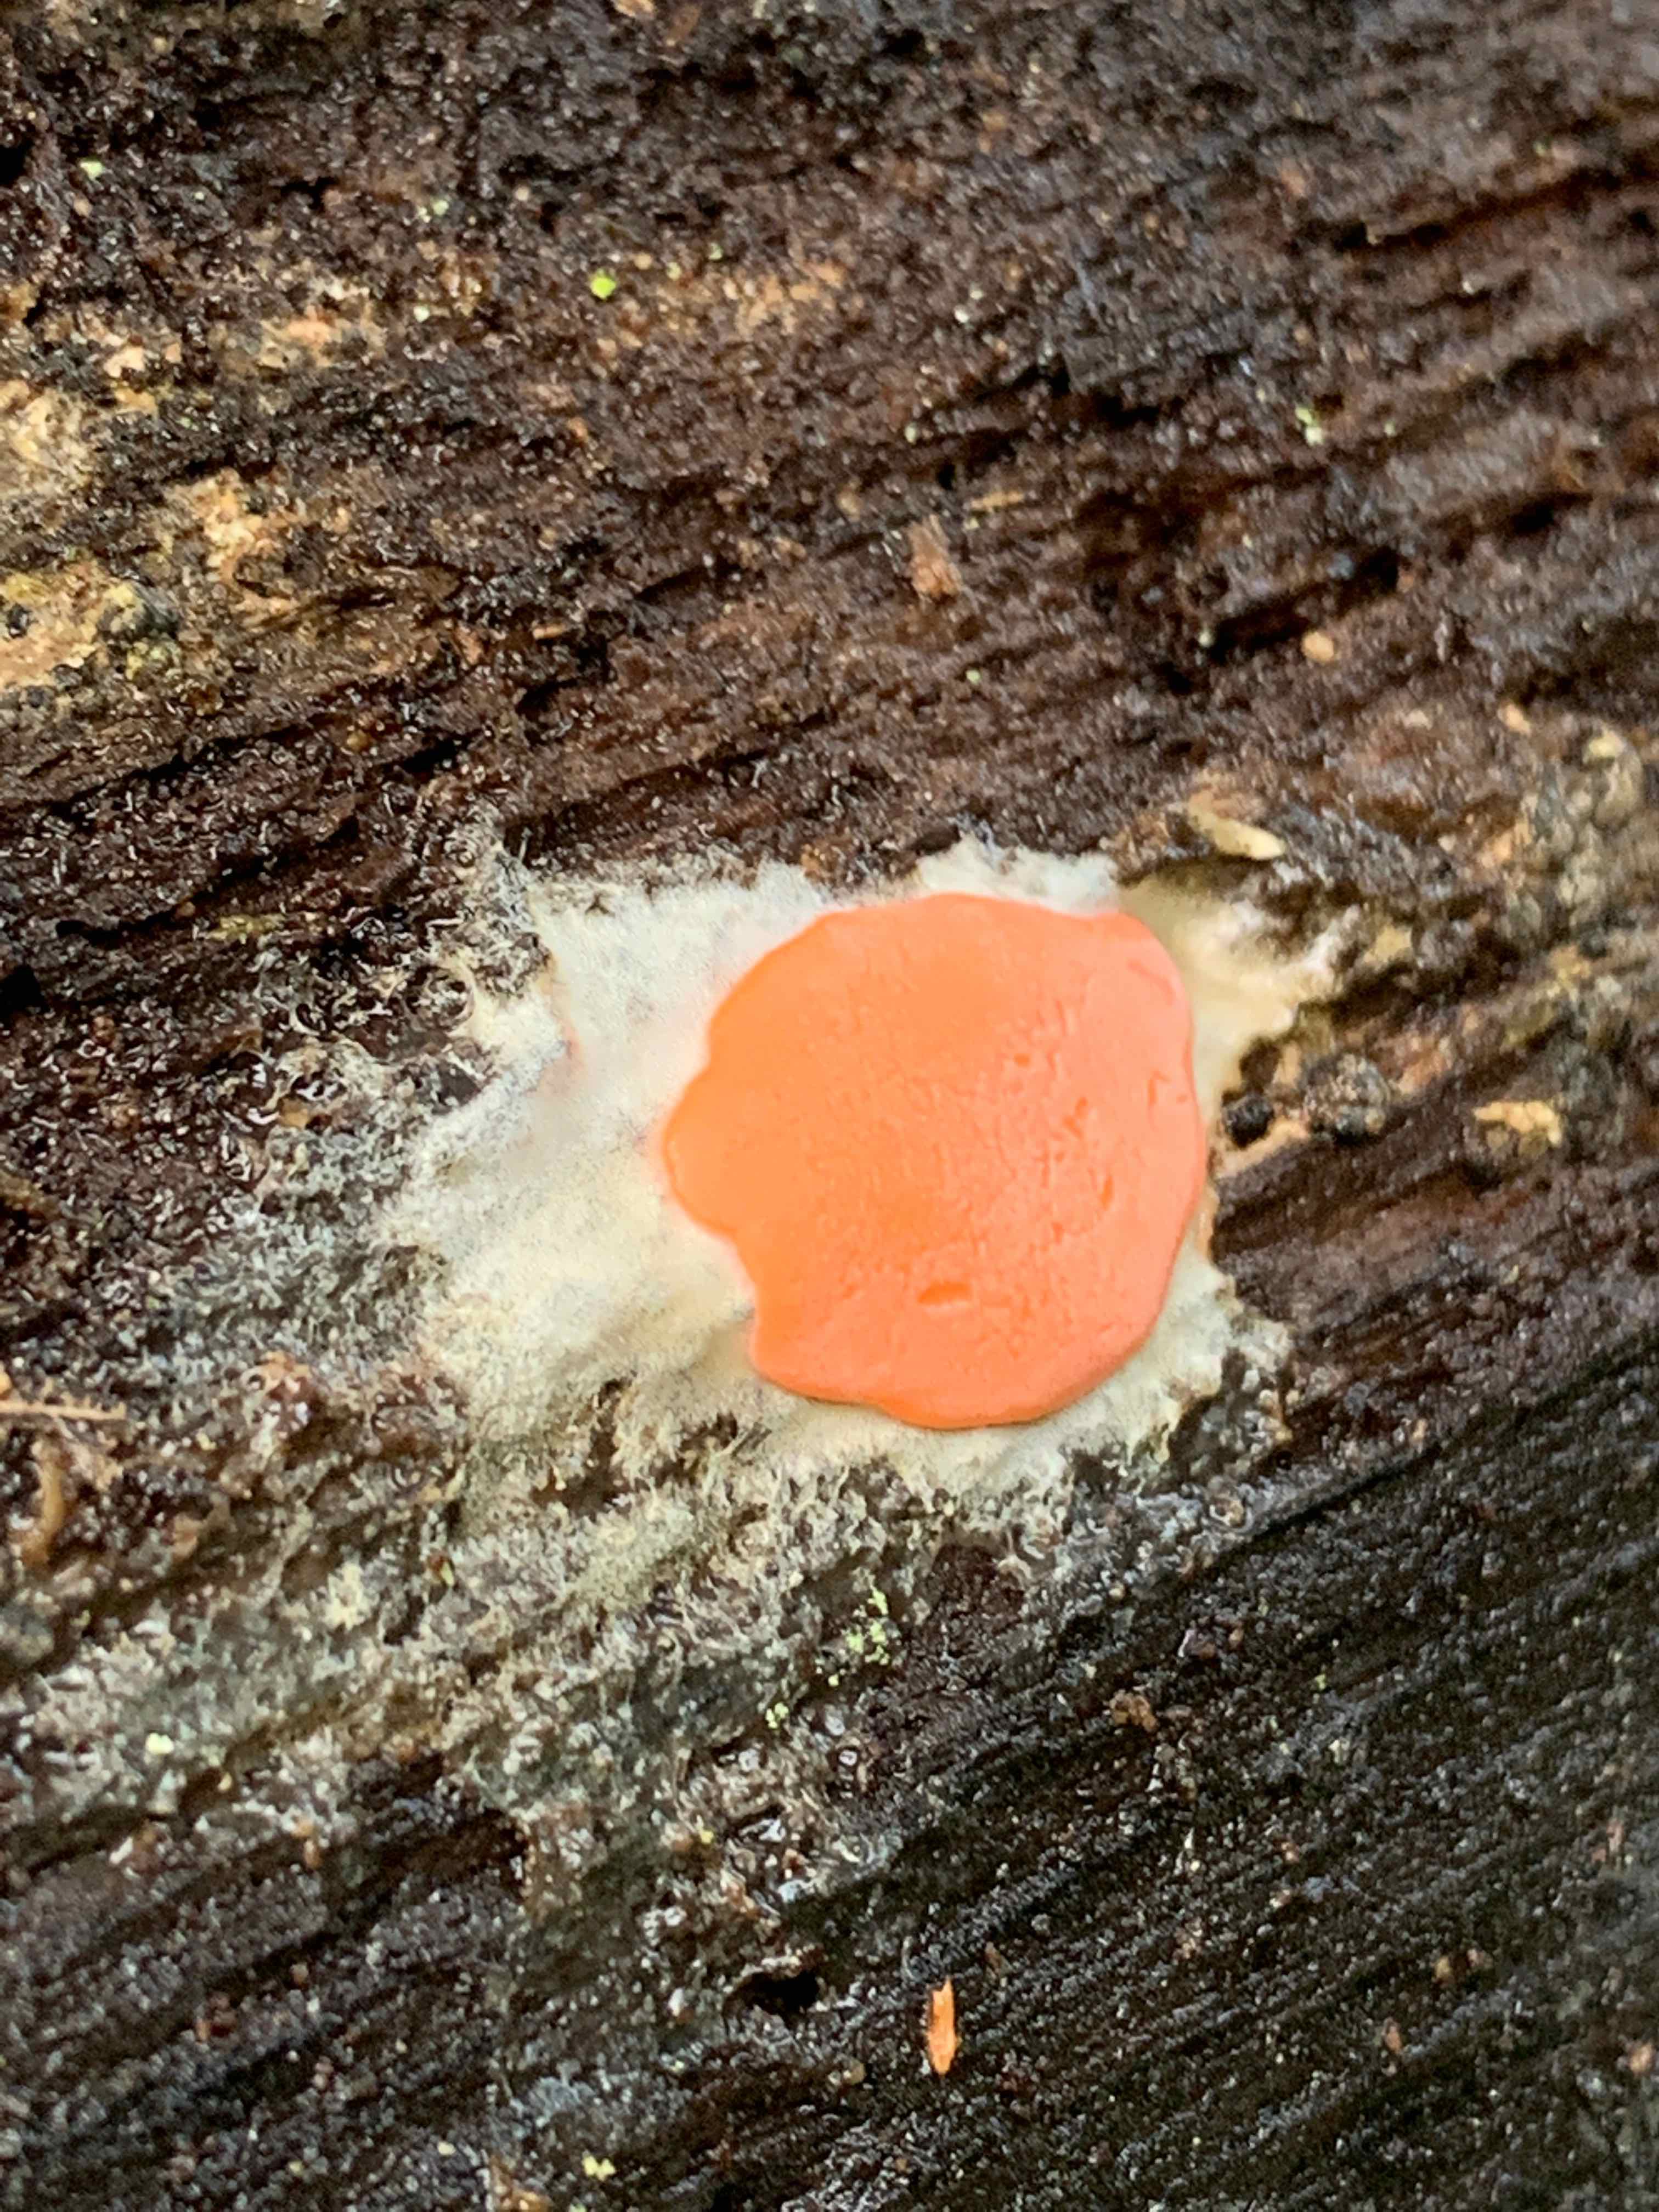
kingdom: Protozoa
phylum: Mycetozoa
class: Myxomycetes
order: Trichiales
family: Dictydiaethaliaceae
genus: Dictydiaethalium
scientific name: Dictydiaethalium plumbeum
